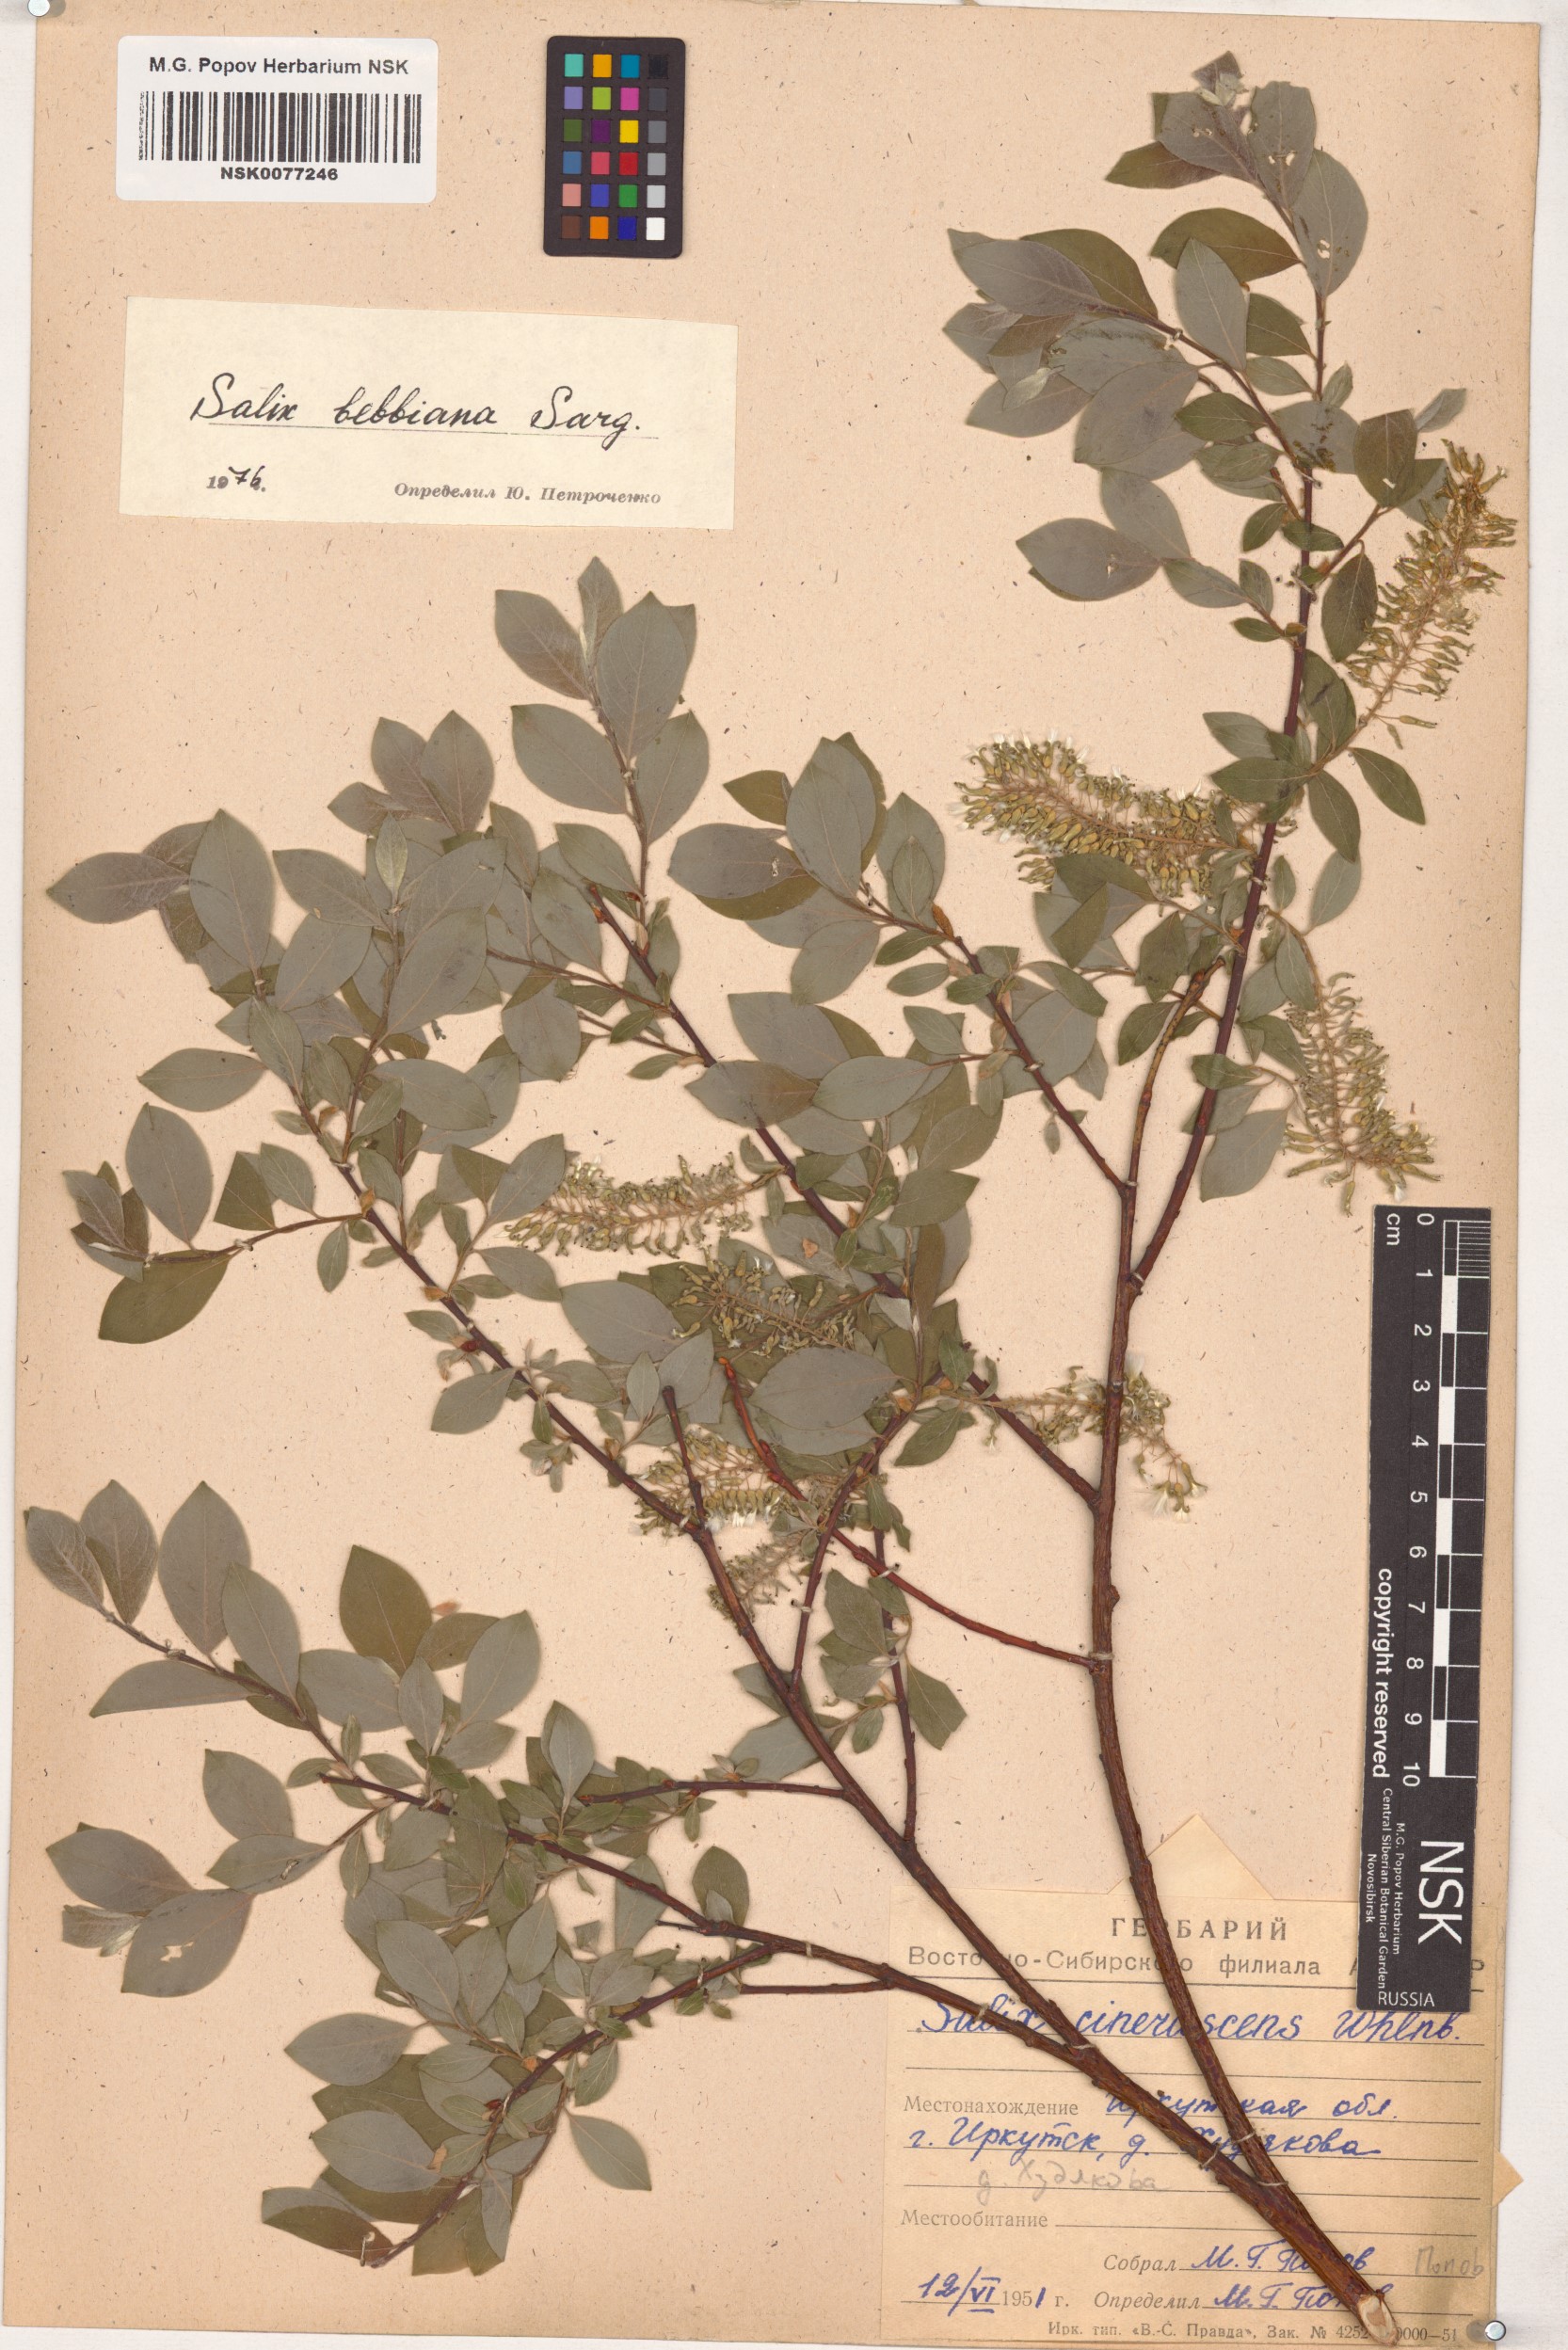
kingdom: Plantae
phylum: Tracheophyta
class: Magnoliopsida
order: Malpighiales
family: Salicaceae
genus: Salix
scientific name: Salix bebbiana
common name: Bebb's willow
